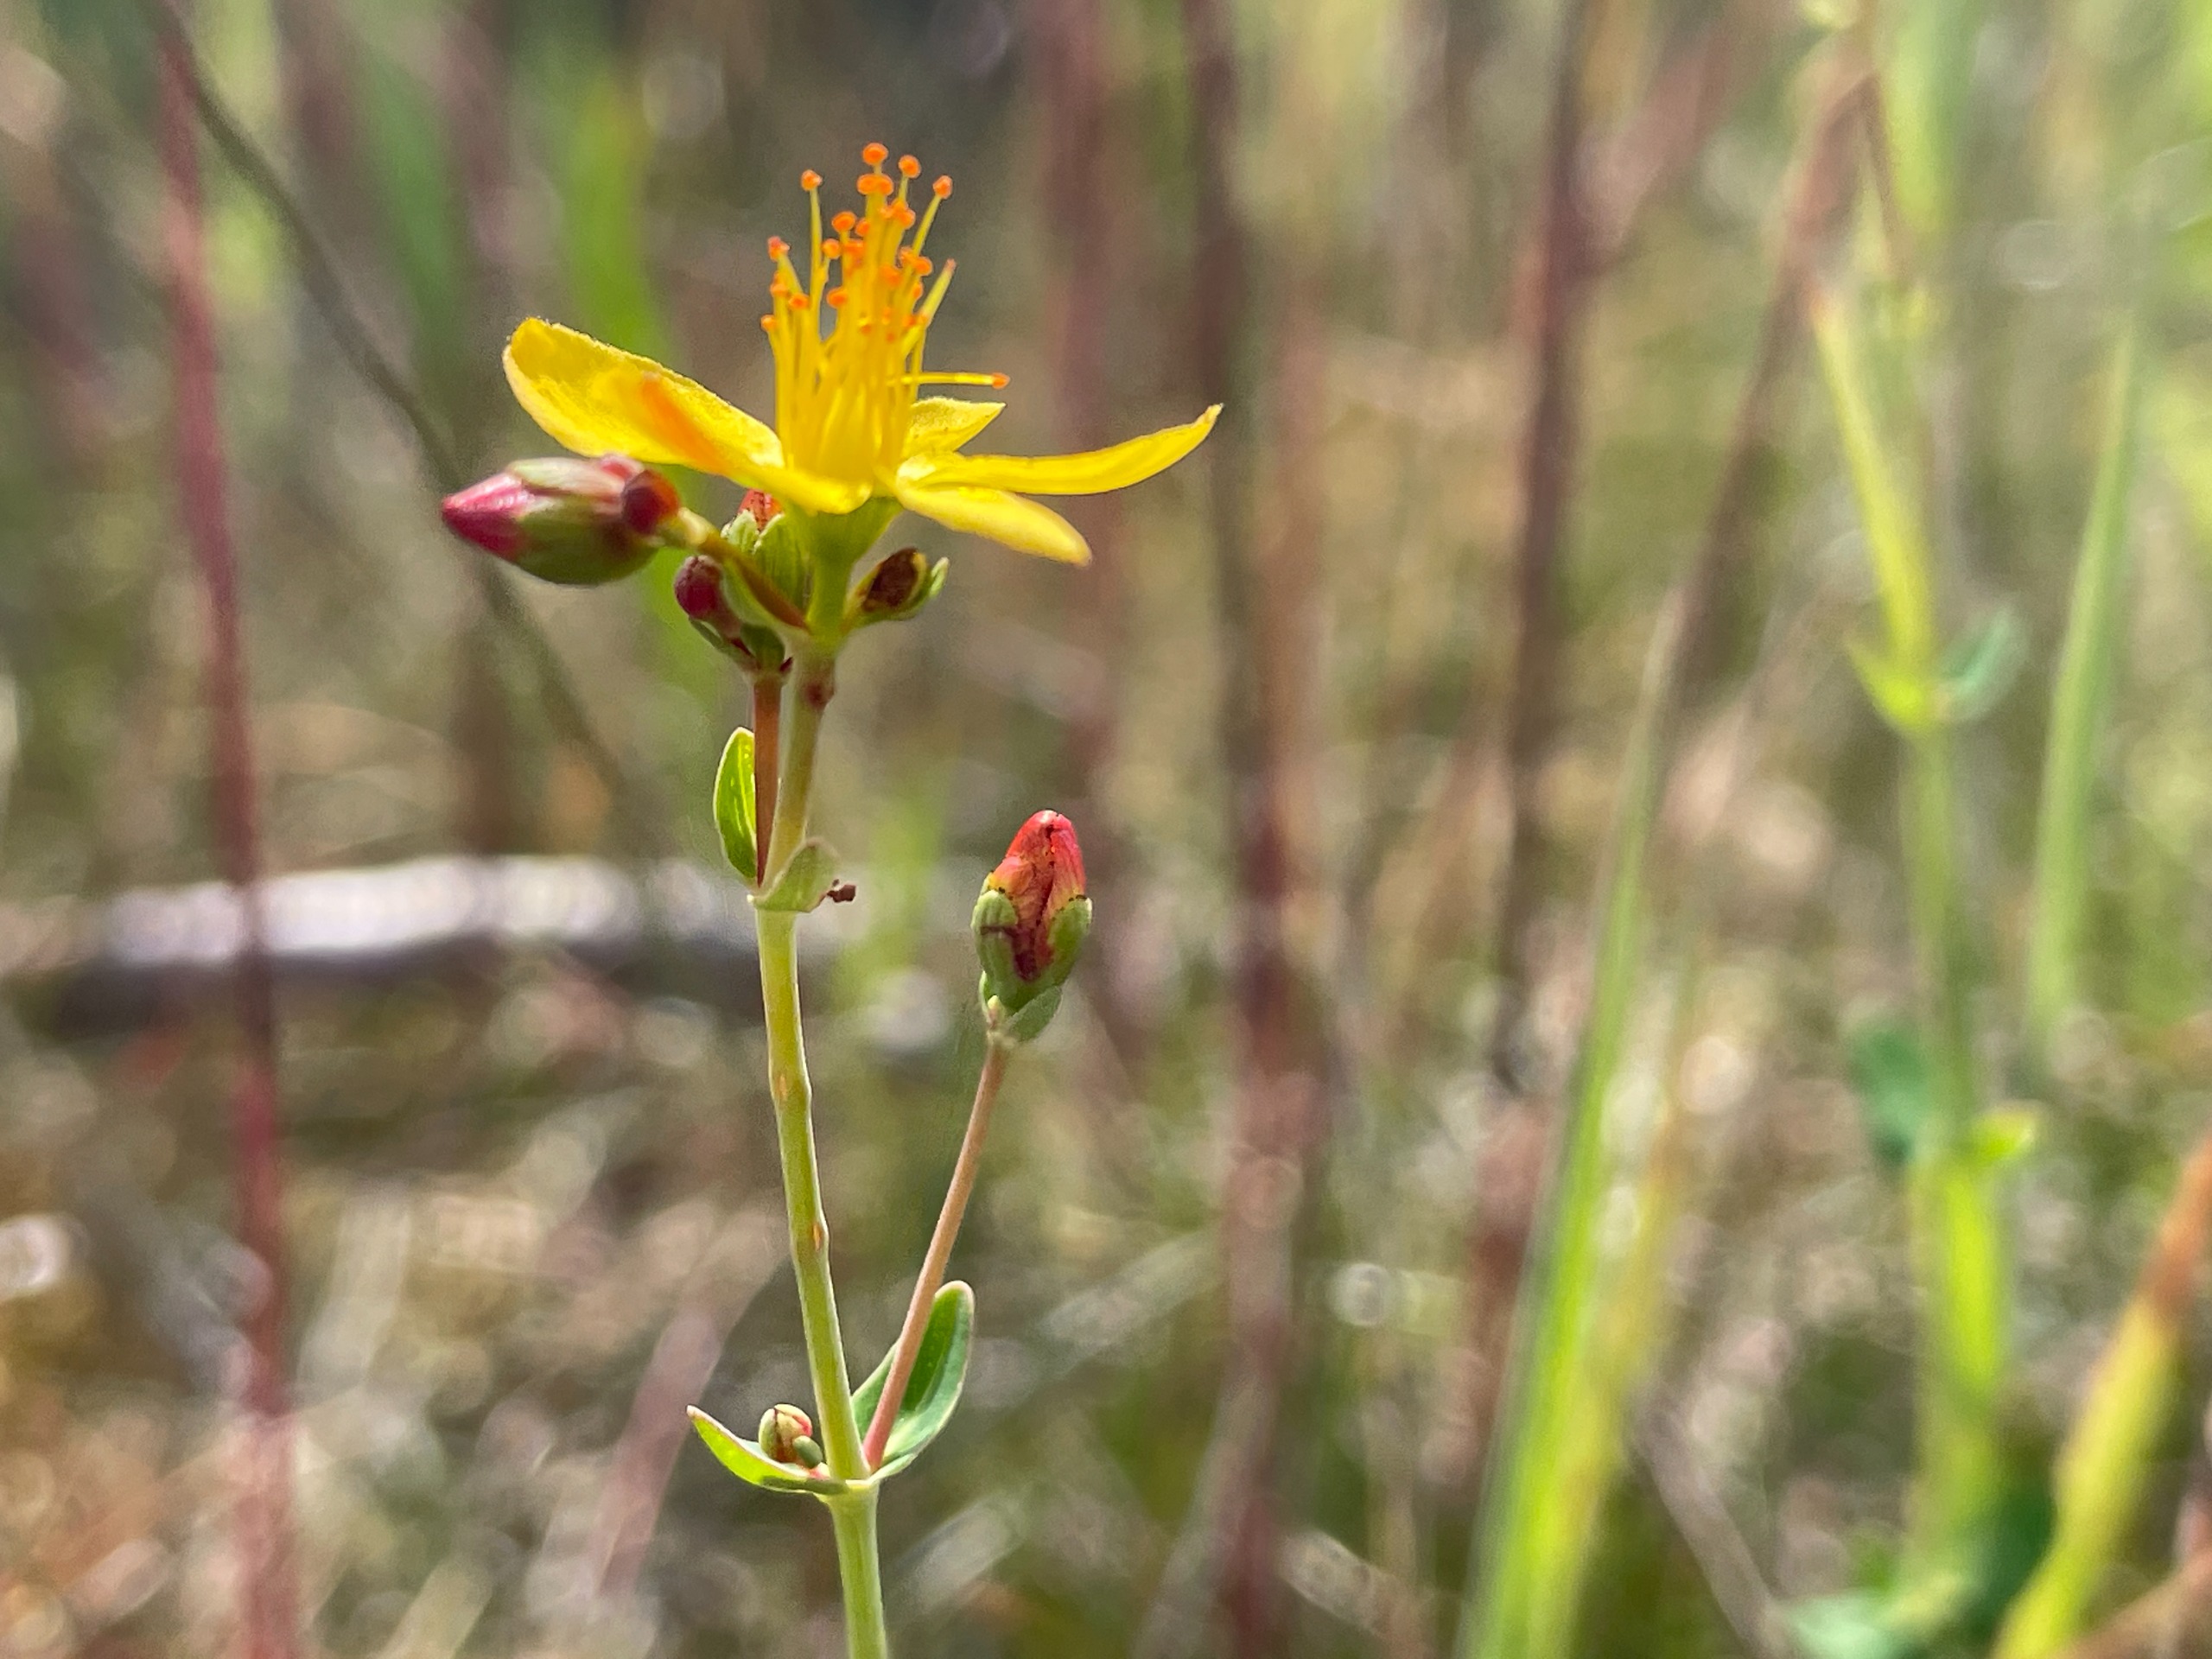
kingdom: Plantae
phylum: Tracheophyta
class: Magnoliopsida
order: Malpighiales
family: Hypericaceae
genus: Hypericum
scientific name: Hypericum pulchrum
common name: Smuk perikon
